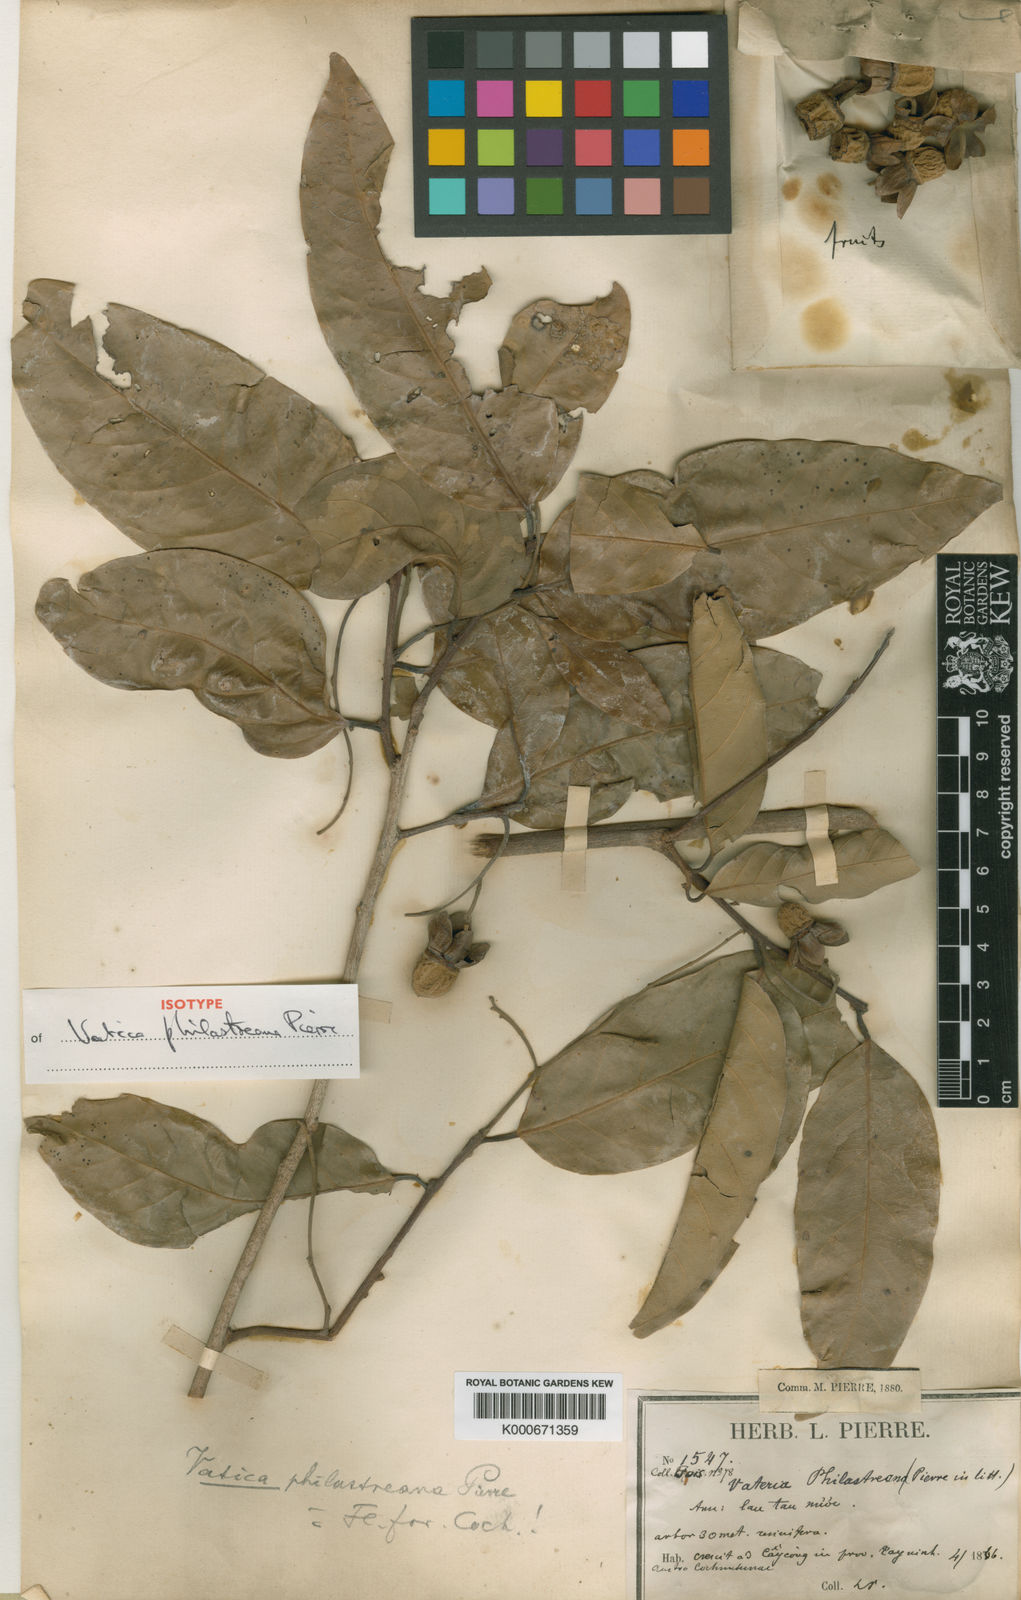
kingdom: Plantae
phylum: Tracheophyta
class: Magnoliopsida
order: Malvales
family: Dipterocarpaceae
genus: Vatica
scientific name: Vatica philastreana
